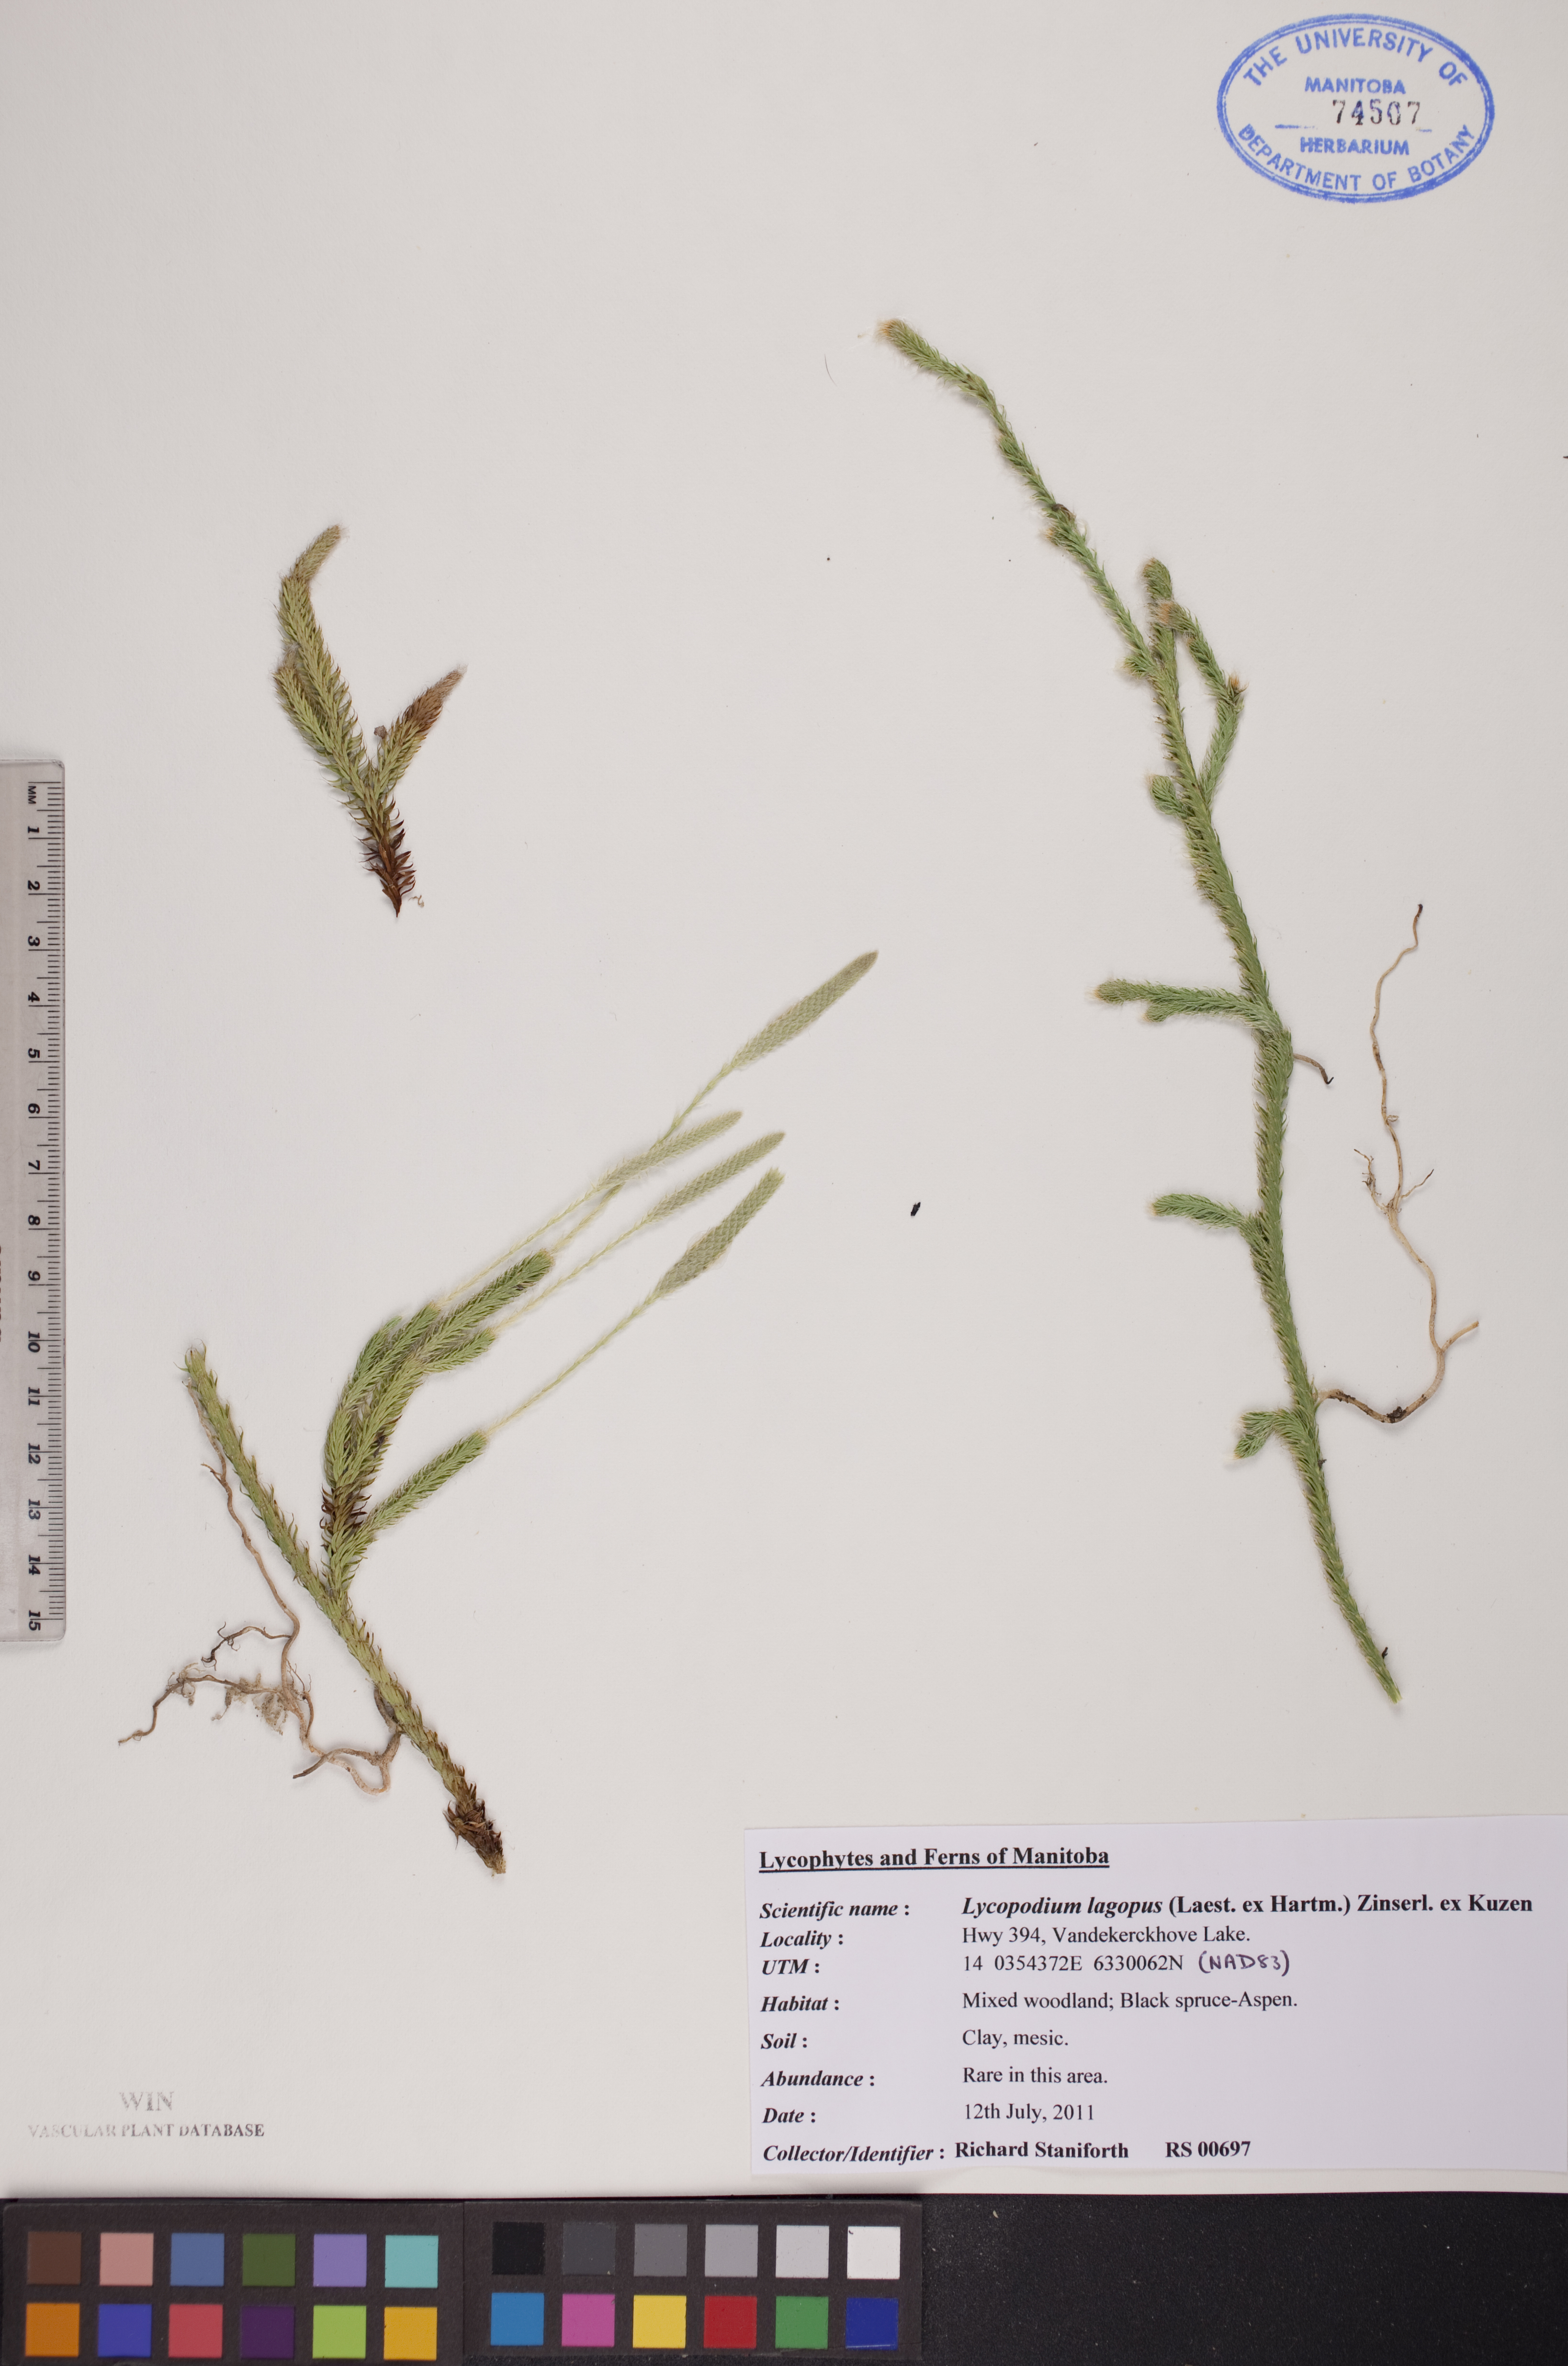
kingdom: Plantae
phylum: Tracheophyta
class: Lycopodiopsida
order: Lycopodiales
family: Lycopodiaceae
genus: Lycopodium
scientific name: Lycopodium lagopus
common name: One-cone clubmoss
